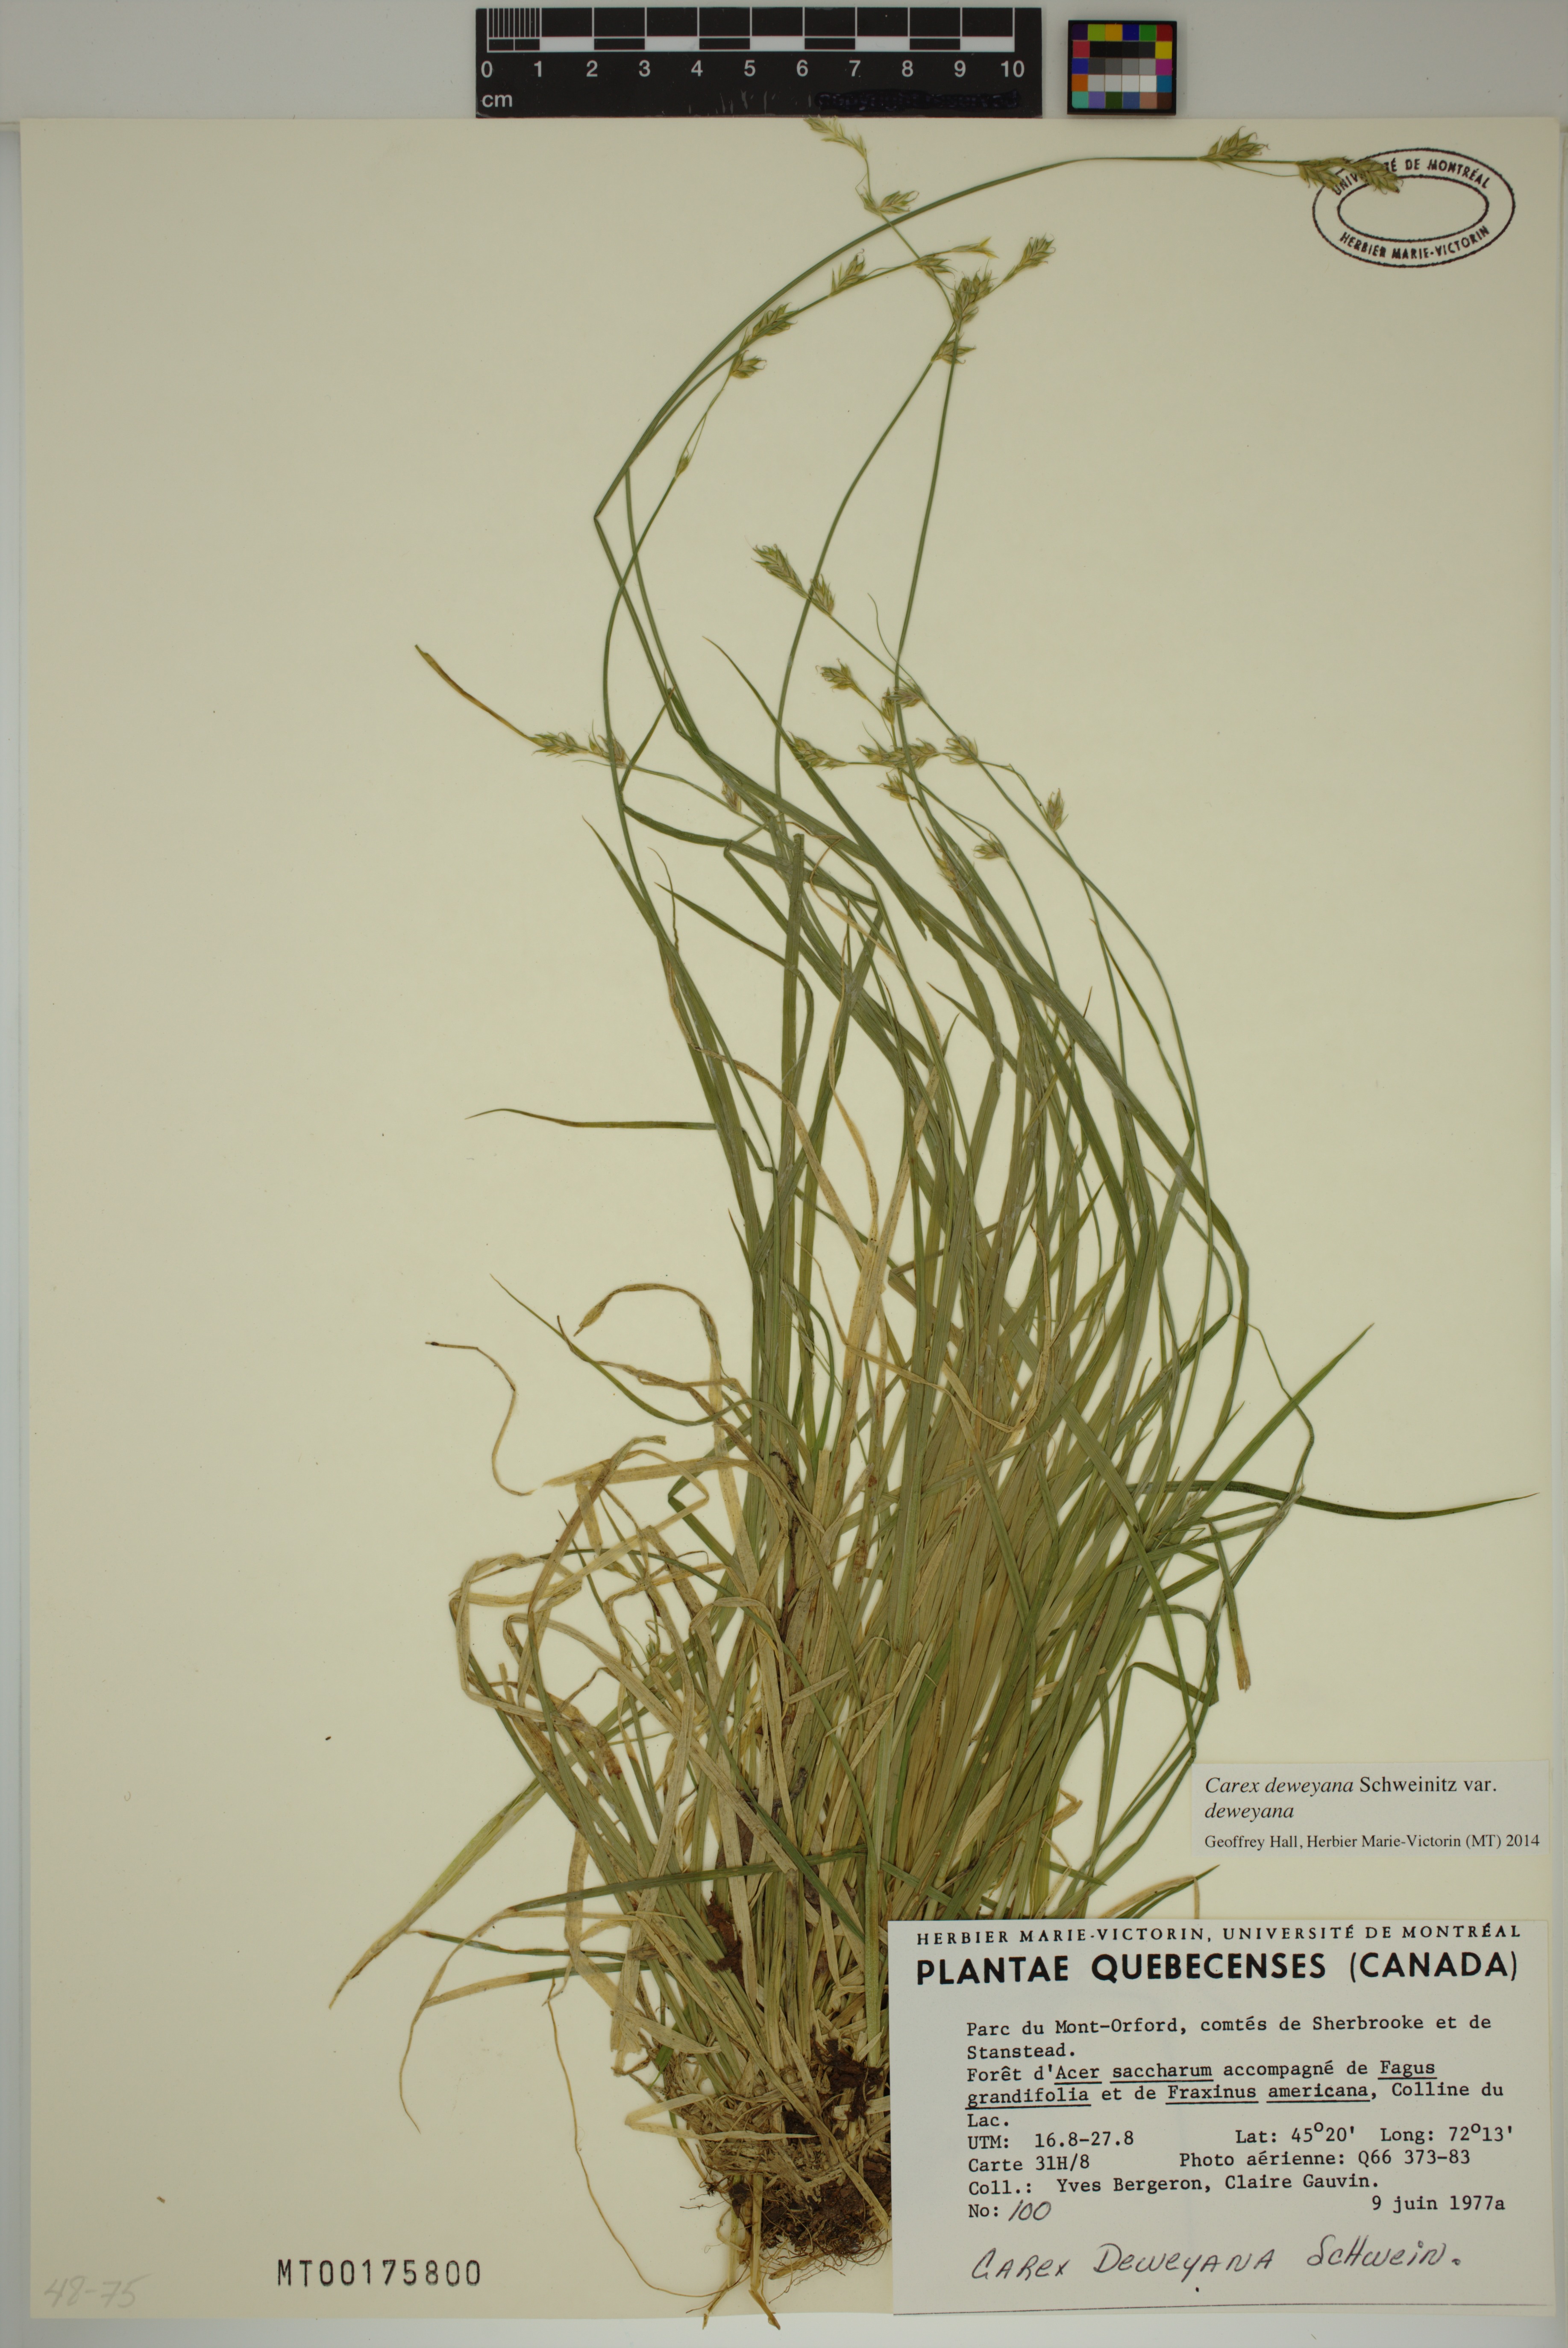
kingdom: Plantae
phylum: Tracheophyta
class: Liliopsida
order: Poales
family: Cyperaceae
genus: Carex
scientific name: Carex deweyana
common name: Dewey's sedge
